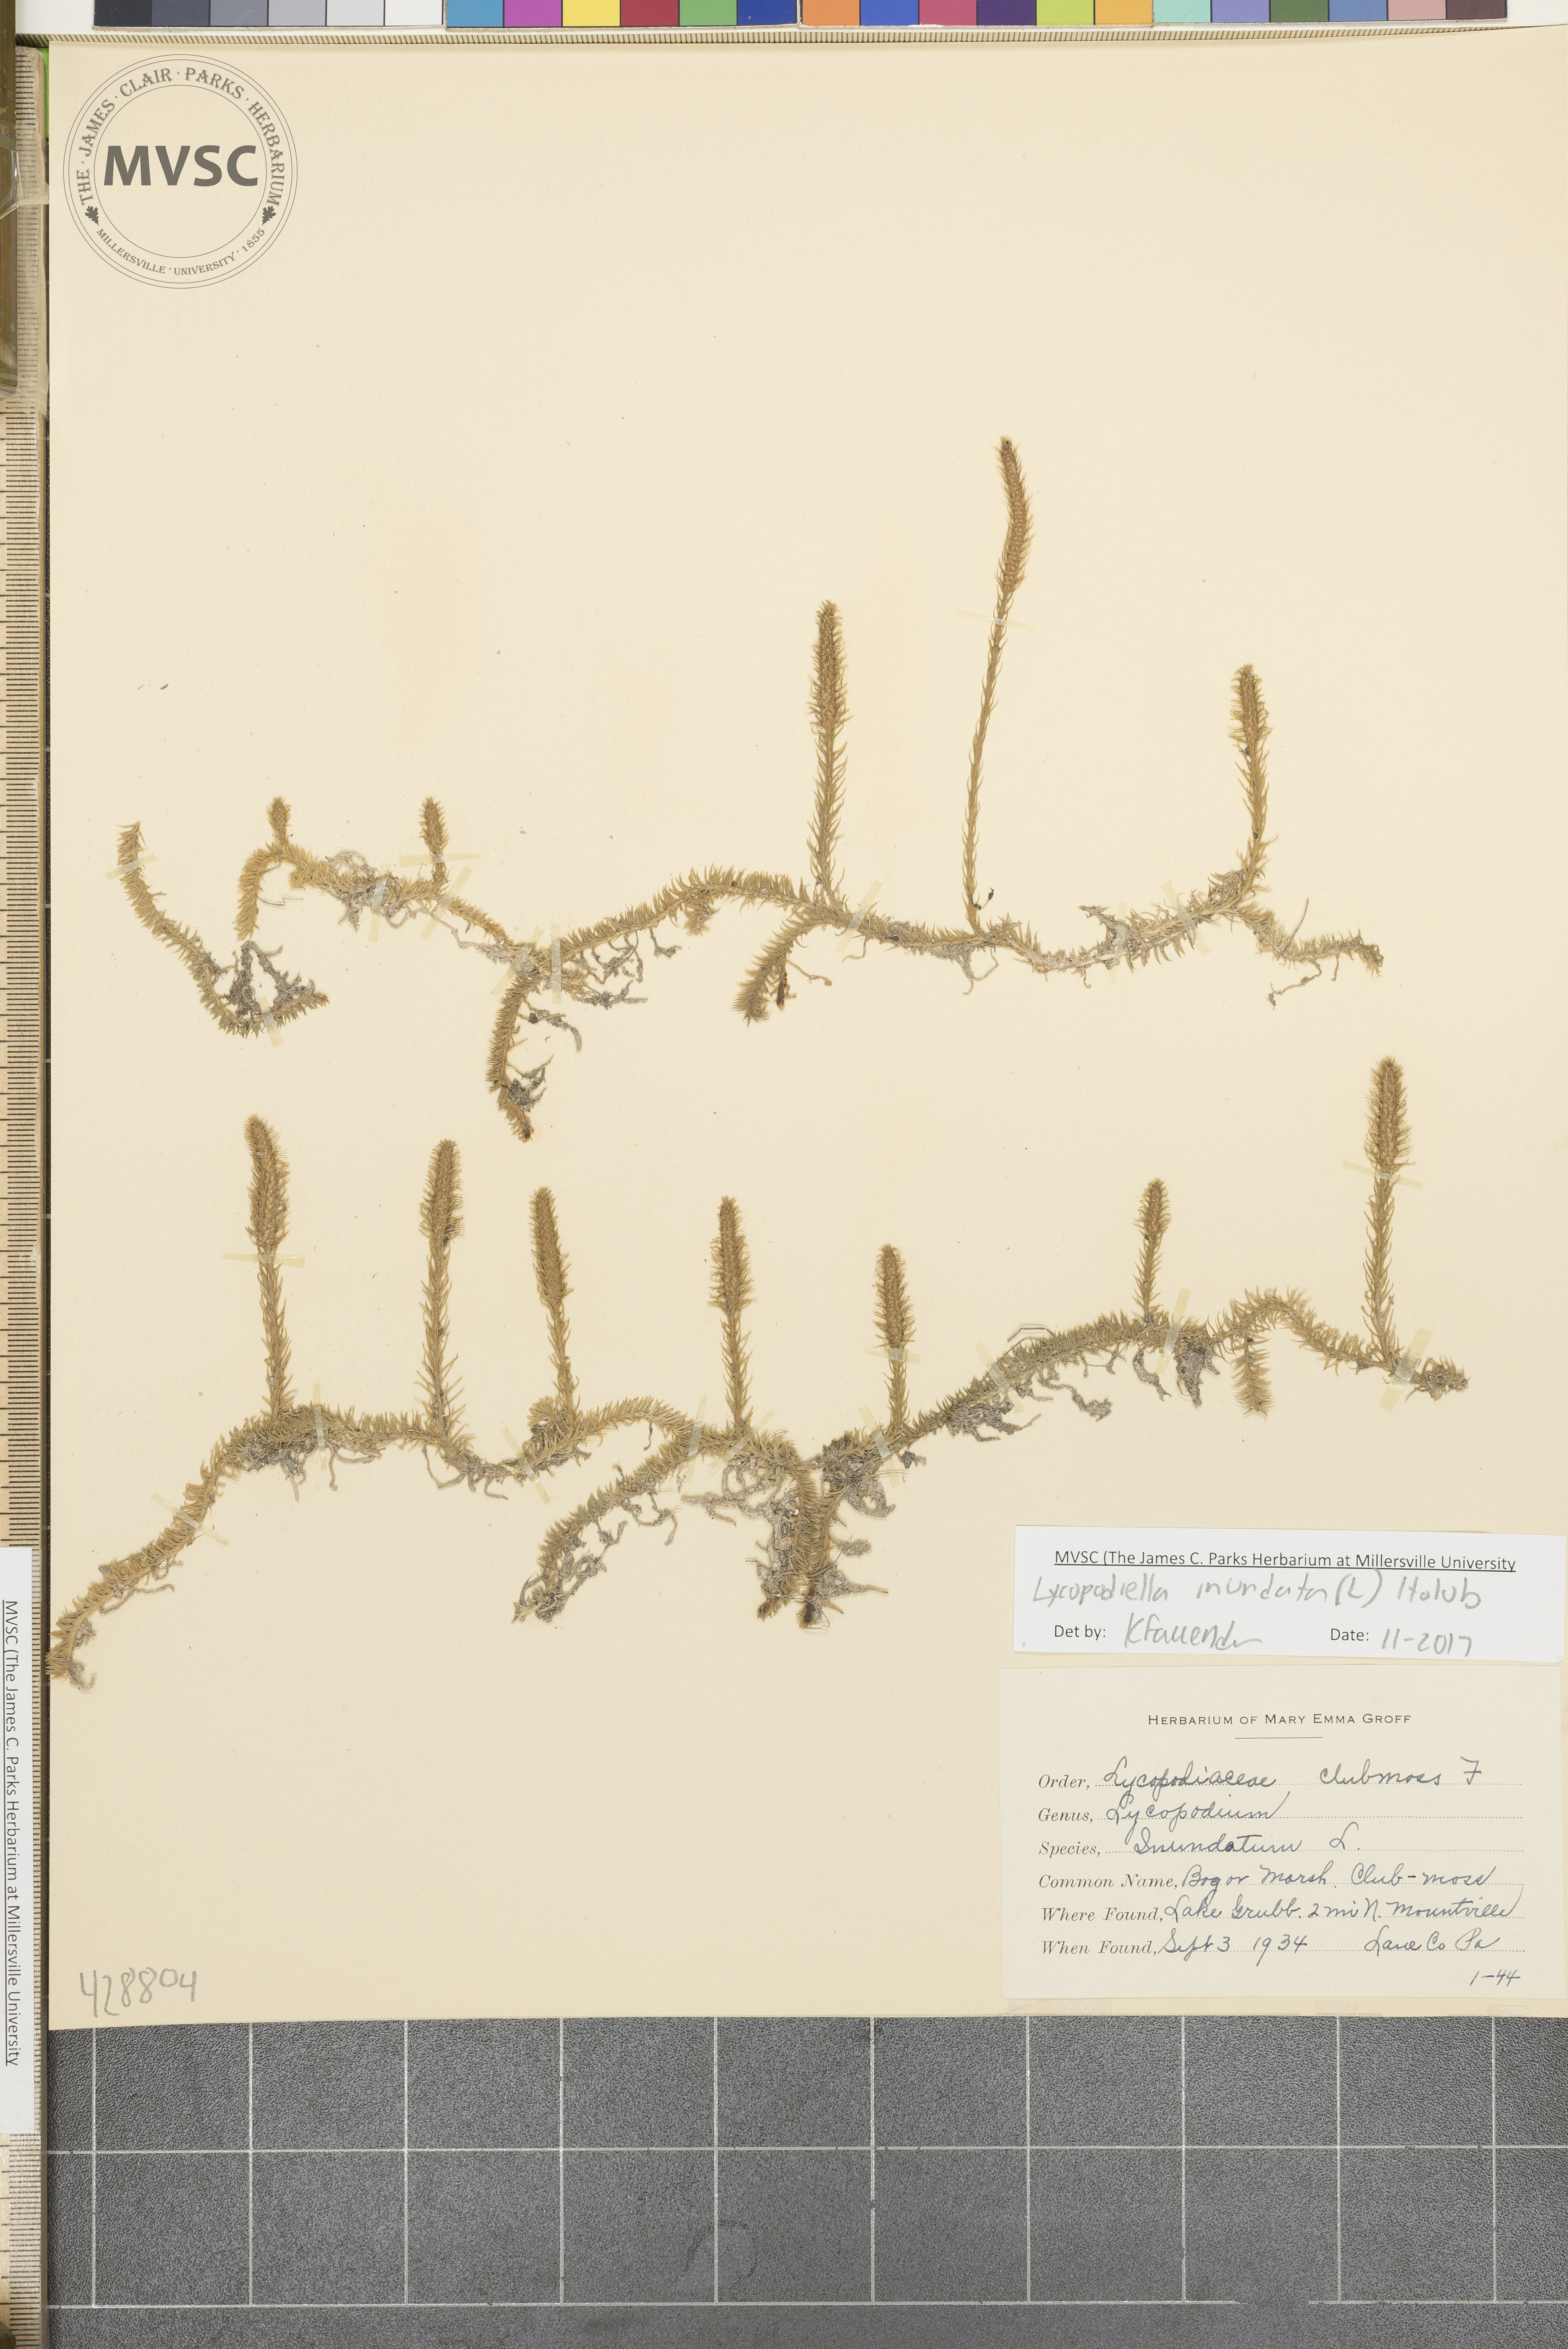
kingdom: Plantae
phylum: Tracheophyta
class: Lycopodiopsida
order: Lycopodiales
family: Lycopodiaceae
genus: Lycopodiella
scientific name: Lycopodiella inundata
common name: Marsh clubmoss
